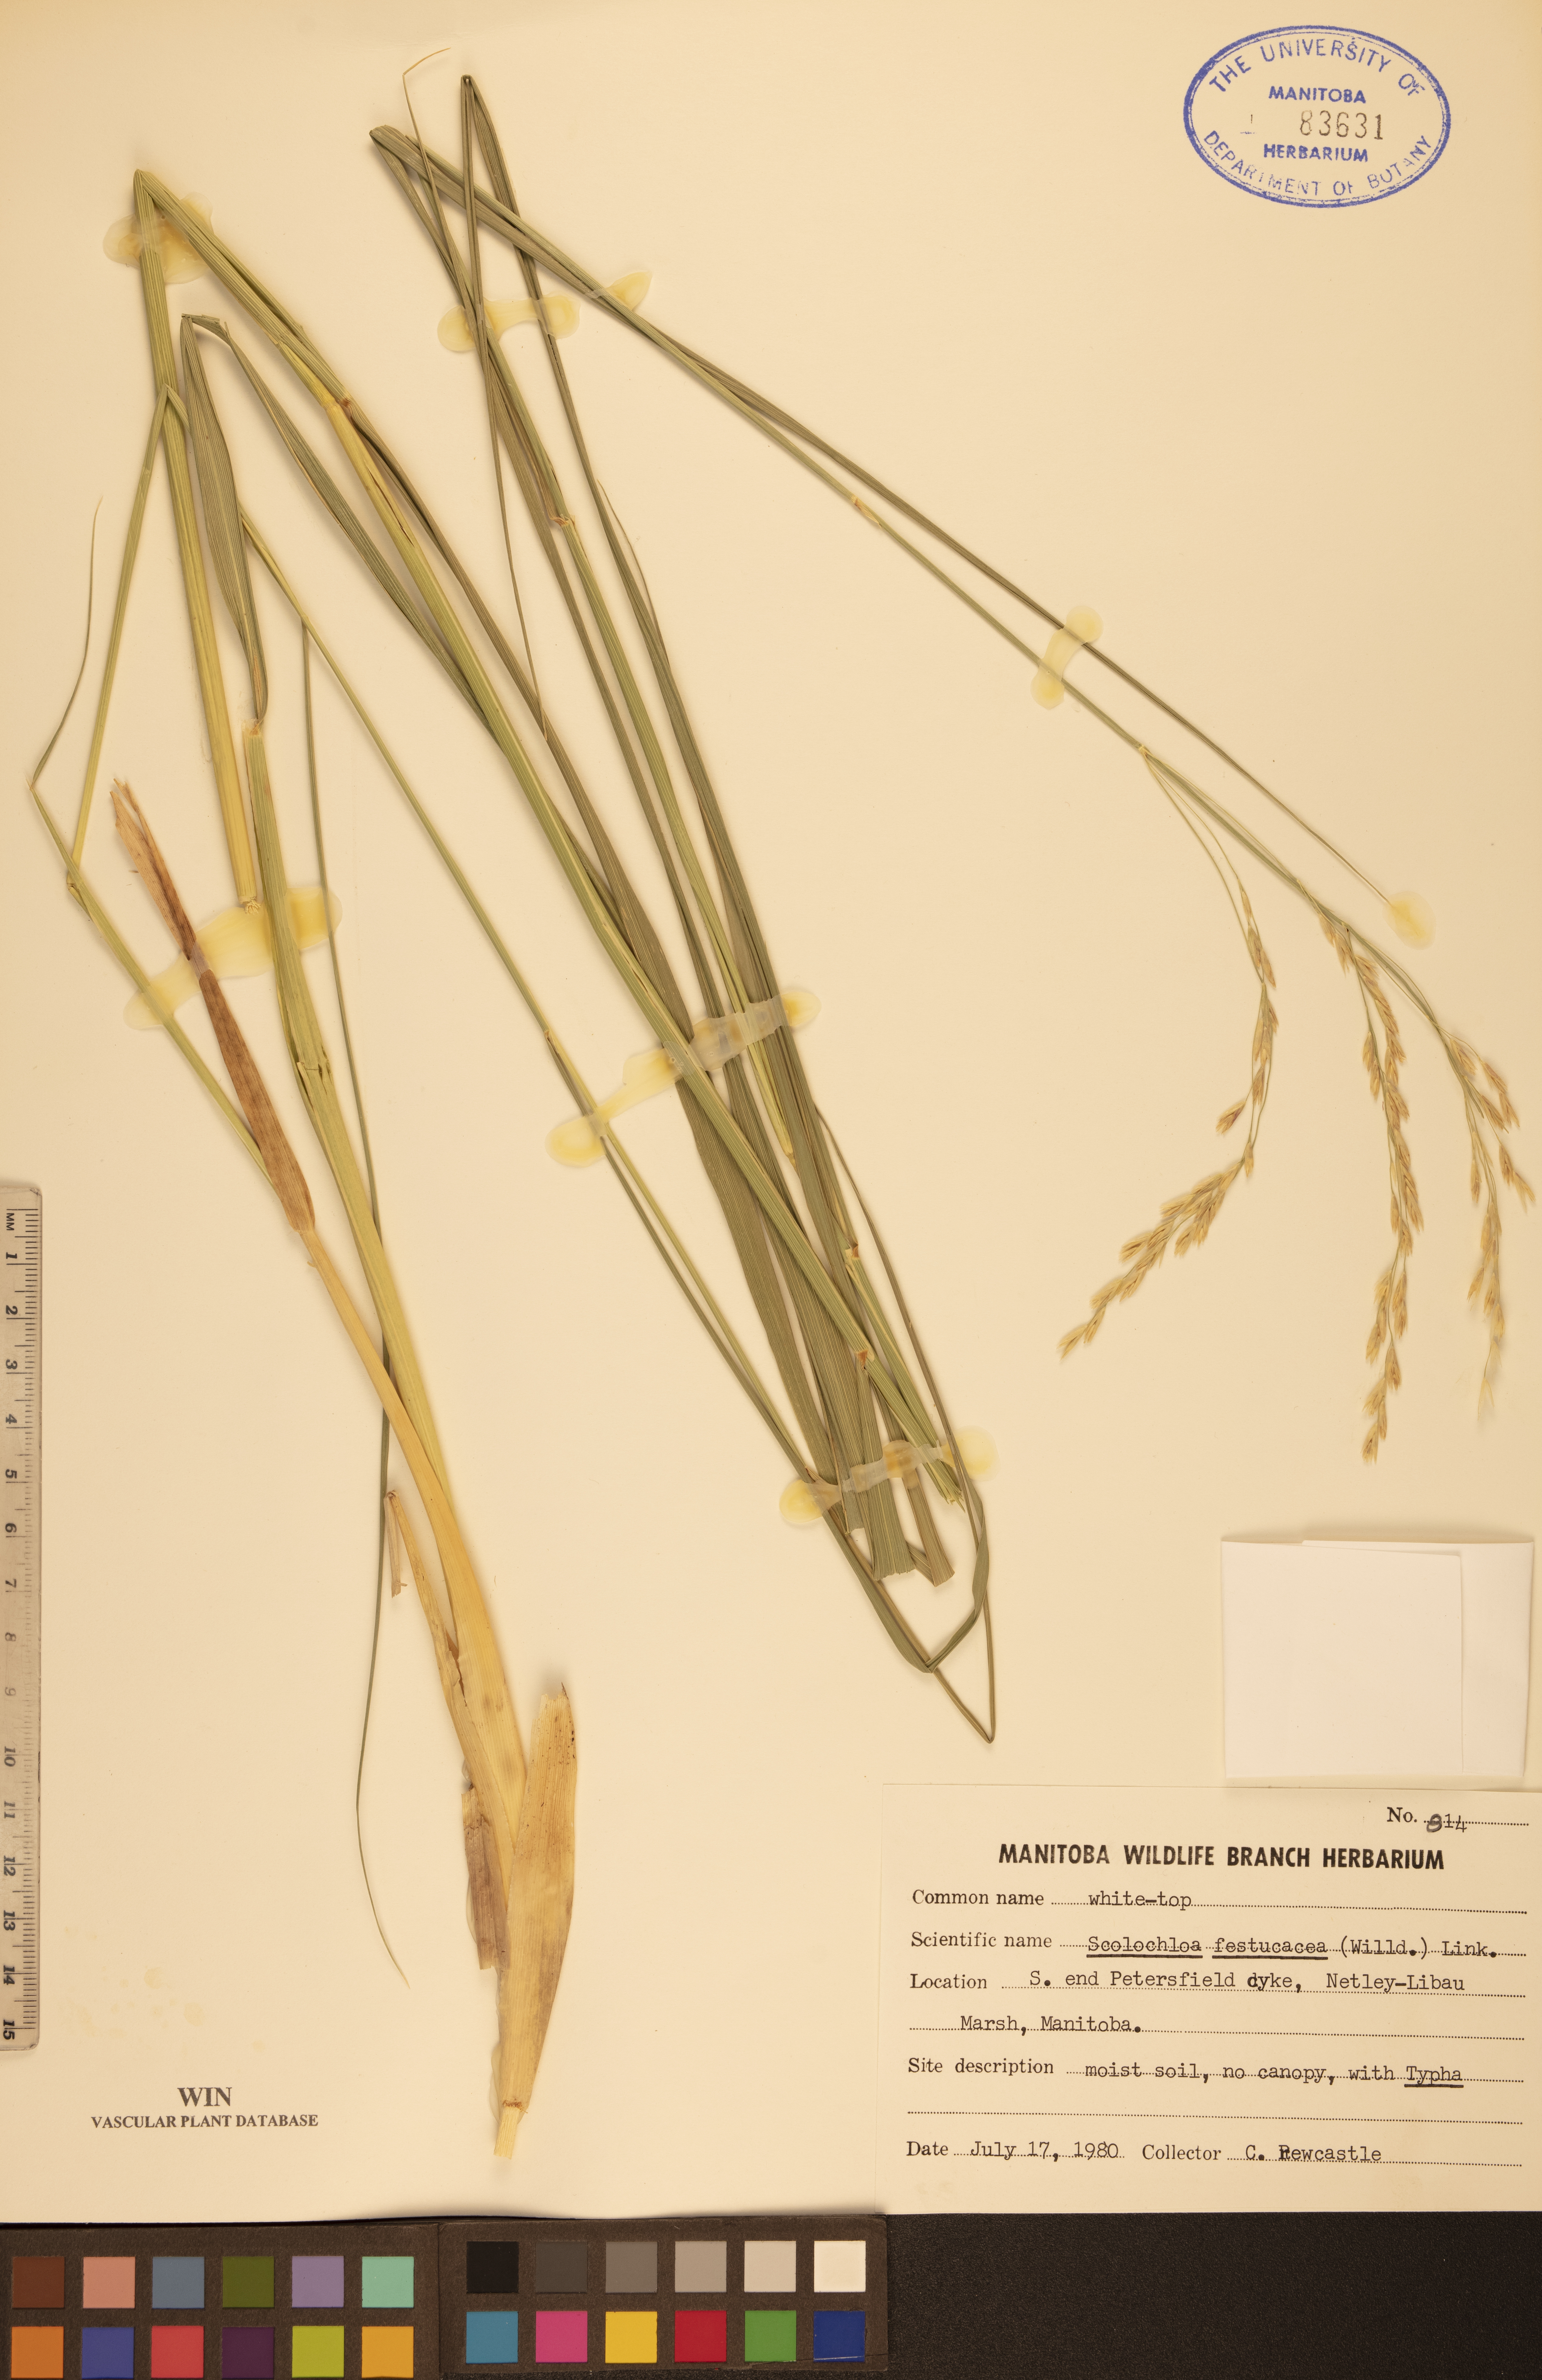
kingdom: Plantae
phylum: Tracheophyta
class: Liliopsida
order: Poales
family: Poaceae
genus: Scolochloa
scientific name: Scolochloa festucacea
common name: Common rivergrass
